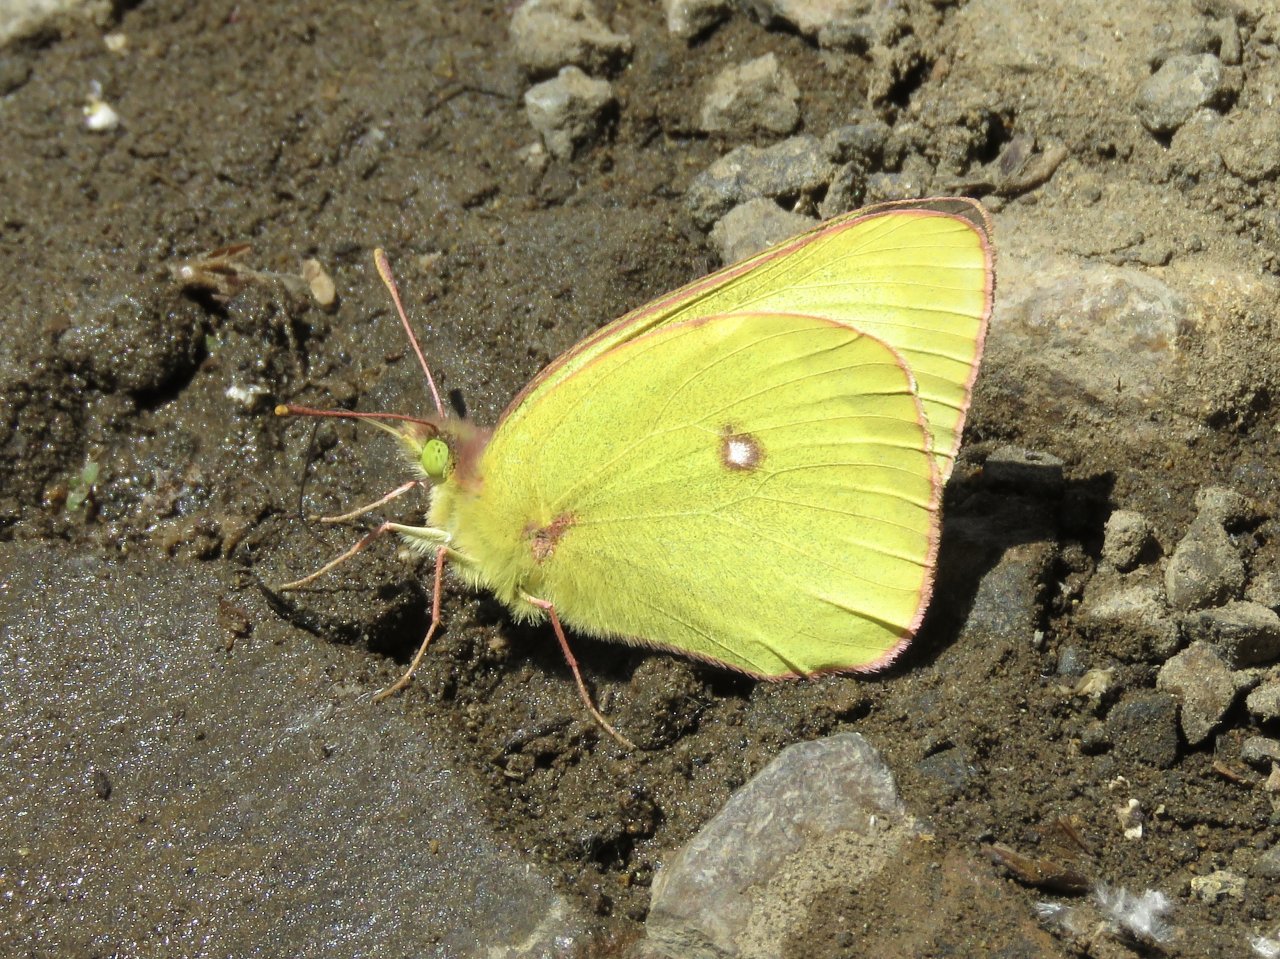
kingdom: Animalia
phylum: Arthropoda
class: Insecta
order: Lepidoptera
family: Pieridae
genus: Colias
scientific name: Colias occidentalis
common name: Western Sulphur
